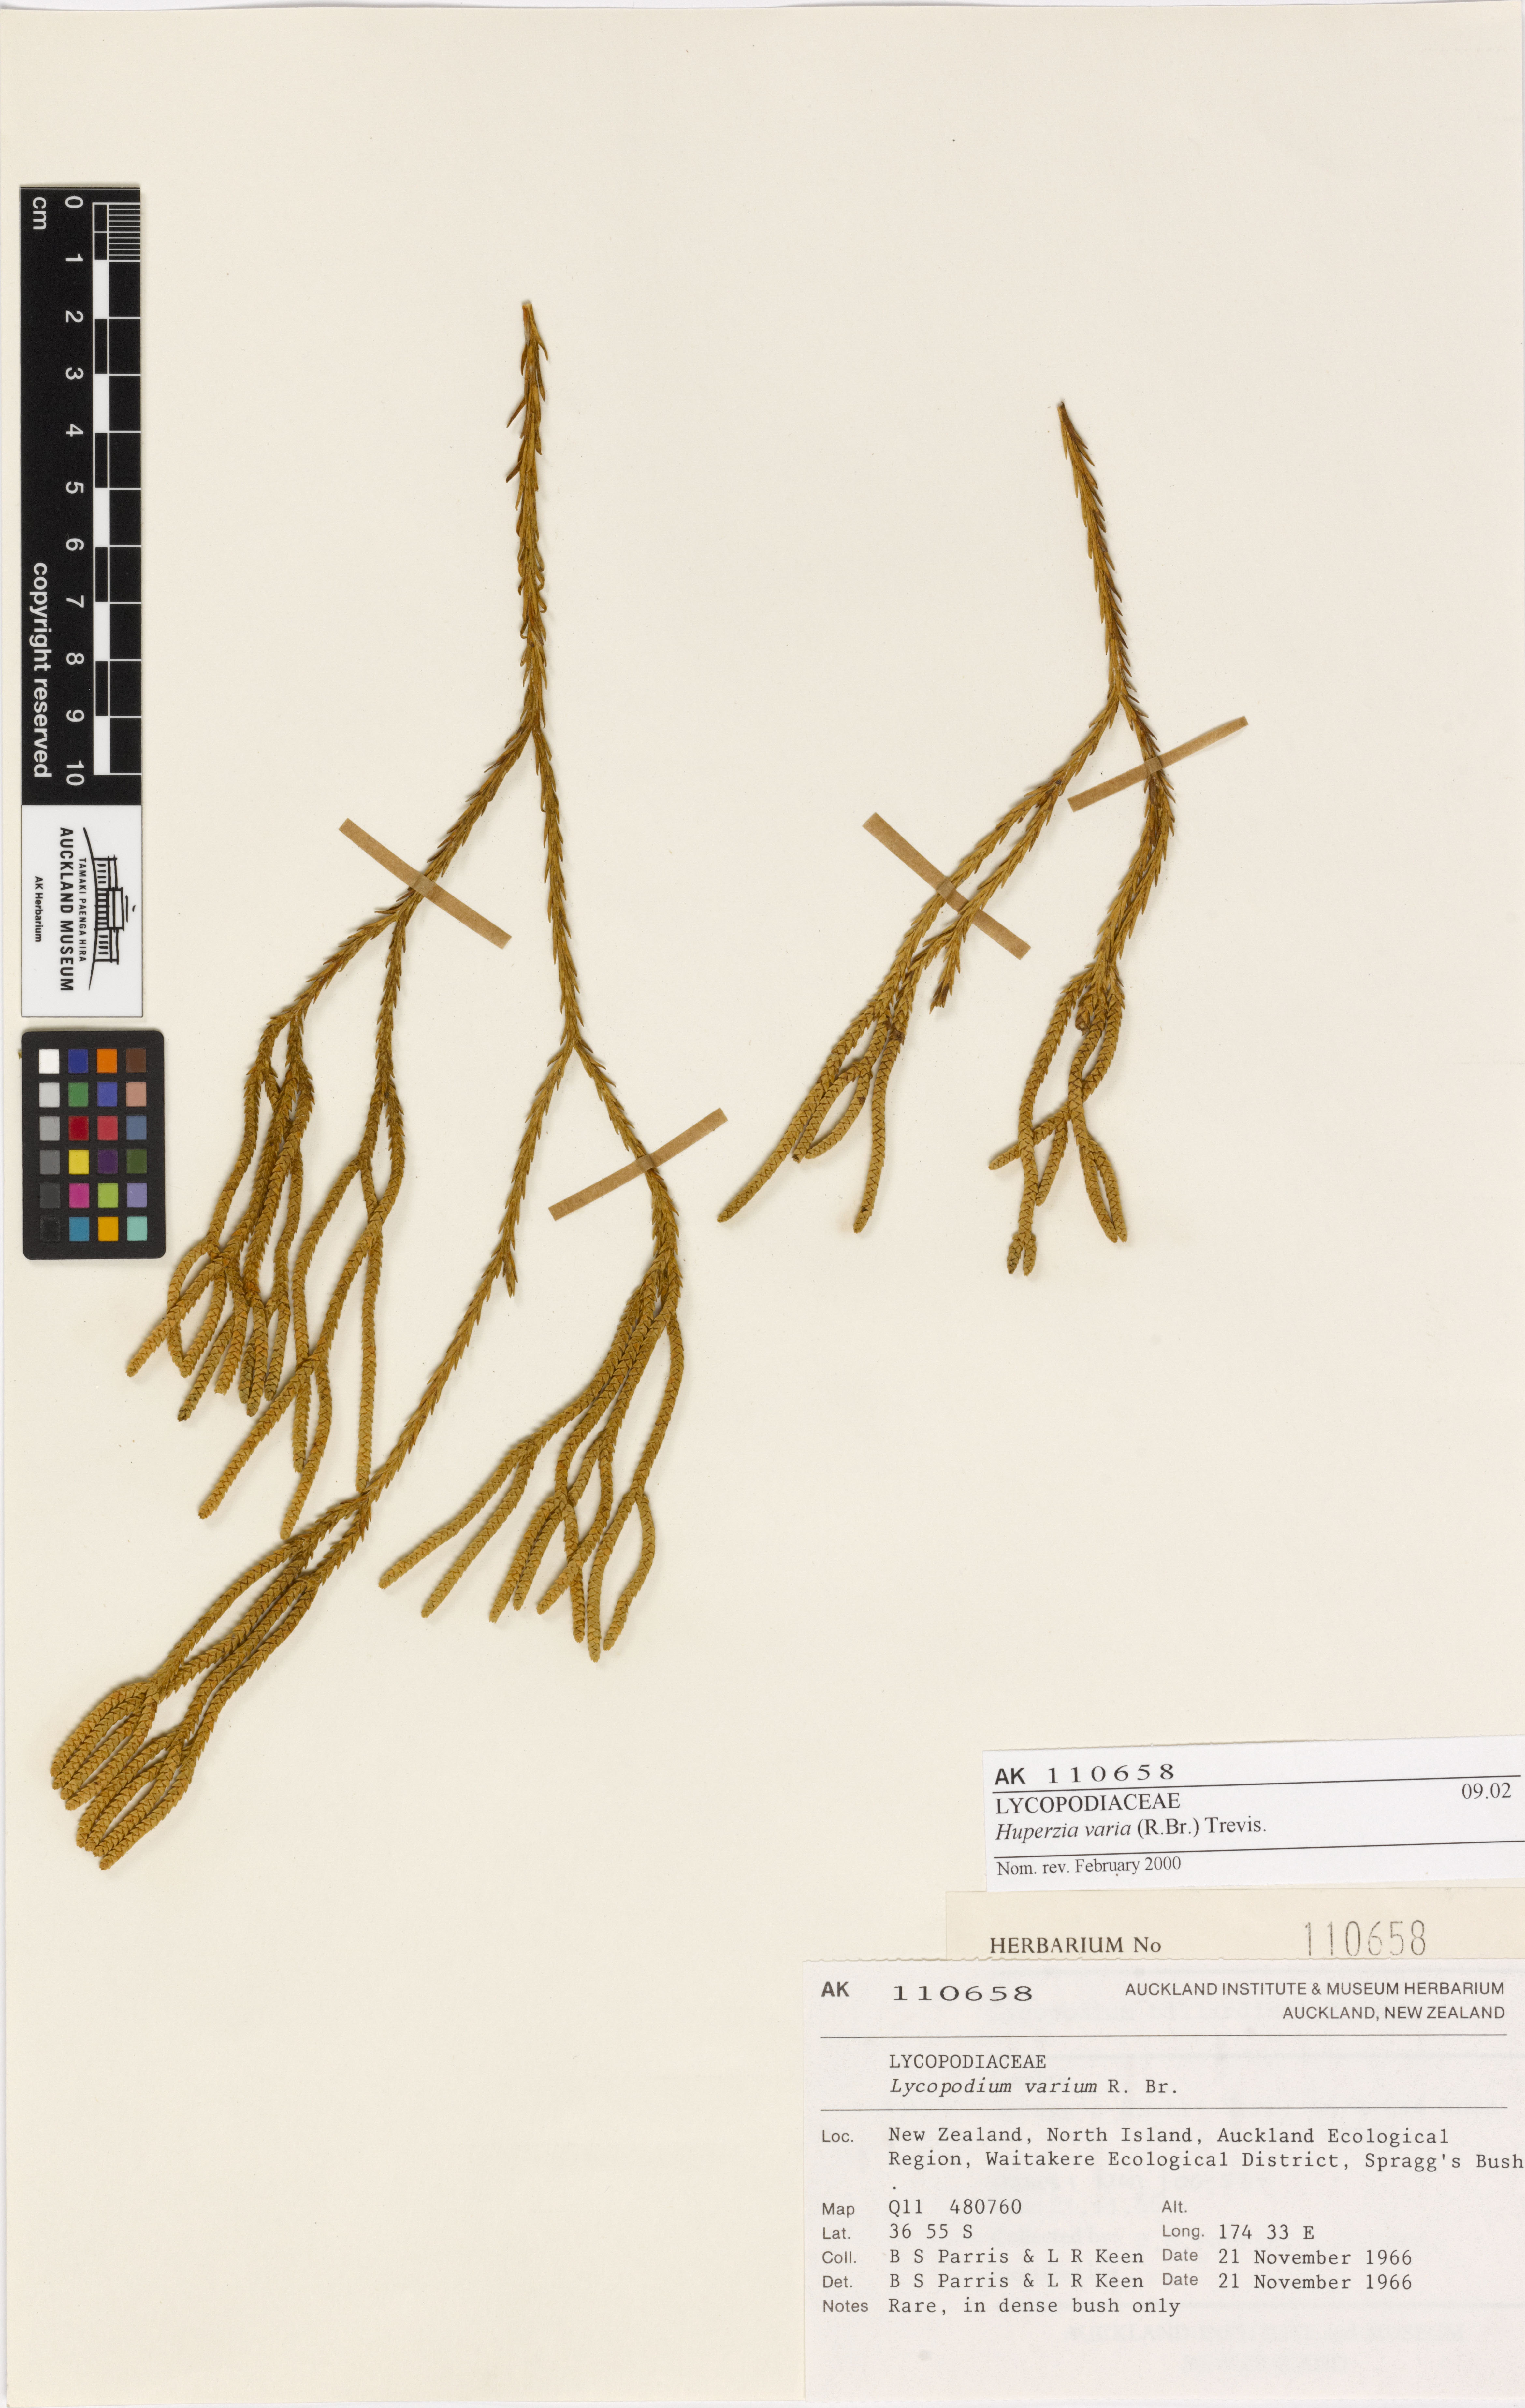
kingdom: Plantae
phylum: Tracheophyta
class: Lycopodiopsida
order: Lycopodiales
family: Lycopodiaceae
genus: Phlegmariurus
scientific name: Phlegmariurus billardierei
